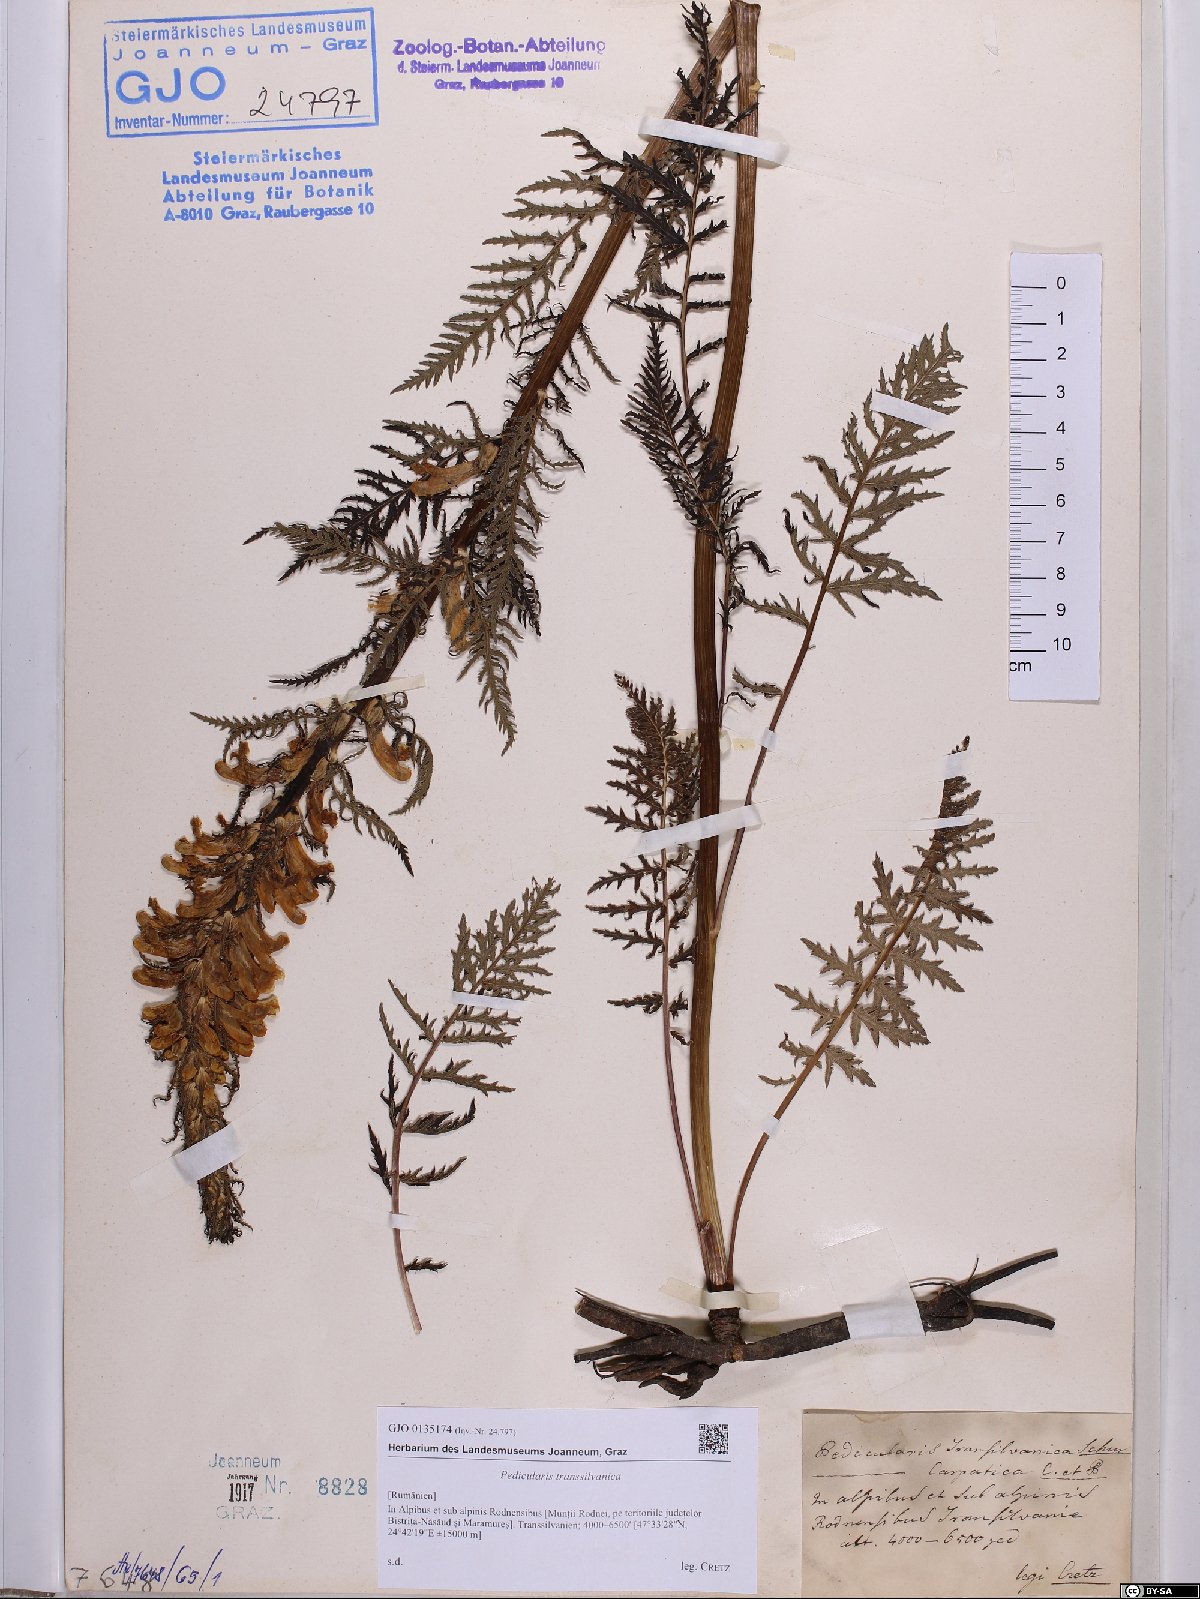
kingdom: Plantae
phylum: Tracheophyta
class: Magnoliopsida
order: Lamiales
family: Orobanchaceae
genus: Pedicularis
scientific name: Pedicularis hacquetii
